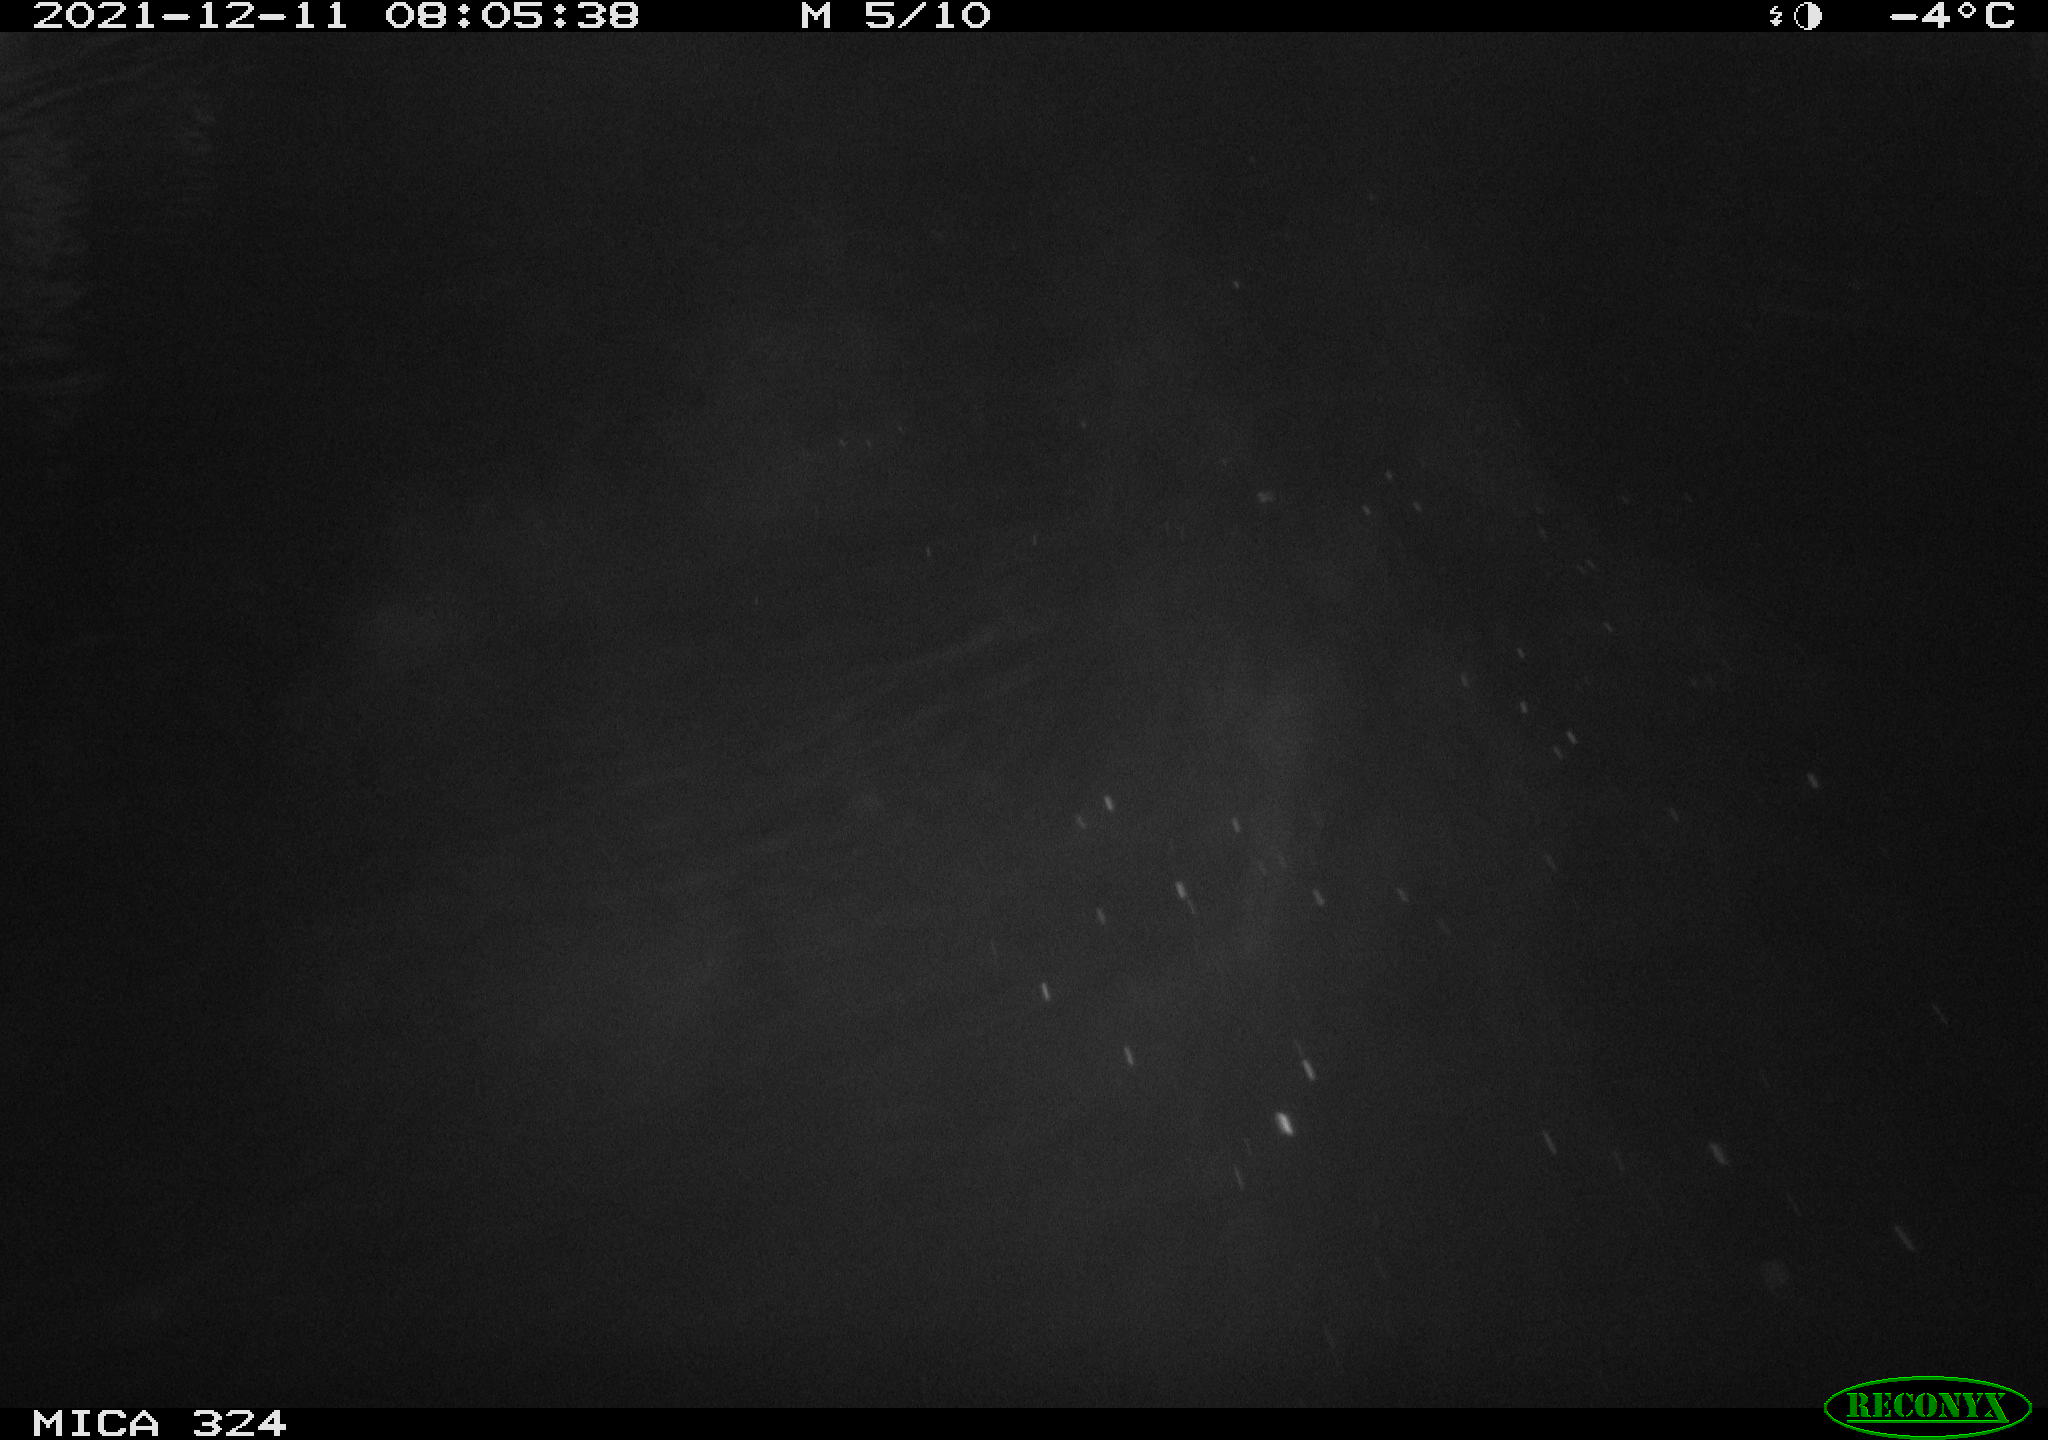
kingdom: Animalia
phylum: Chordata
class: Mammalia
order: Rodentia
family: Cricetidae
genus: Ondatra
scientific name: Ondatra zibethicus
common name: Muskrat
